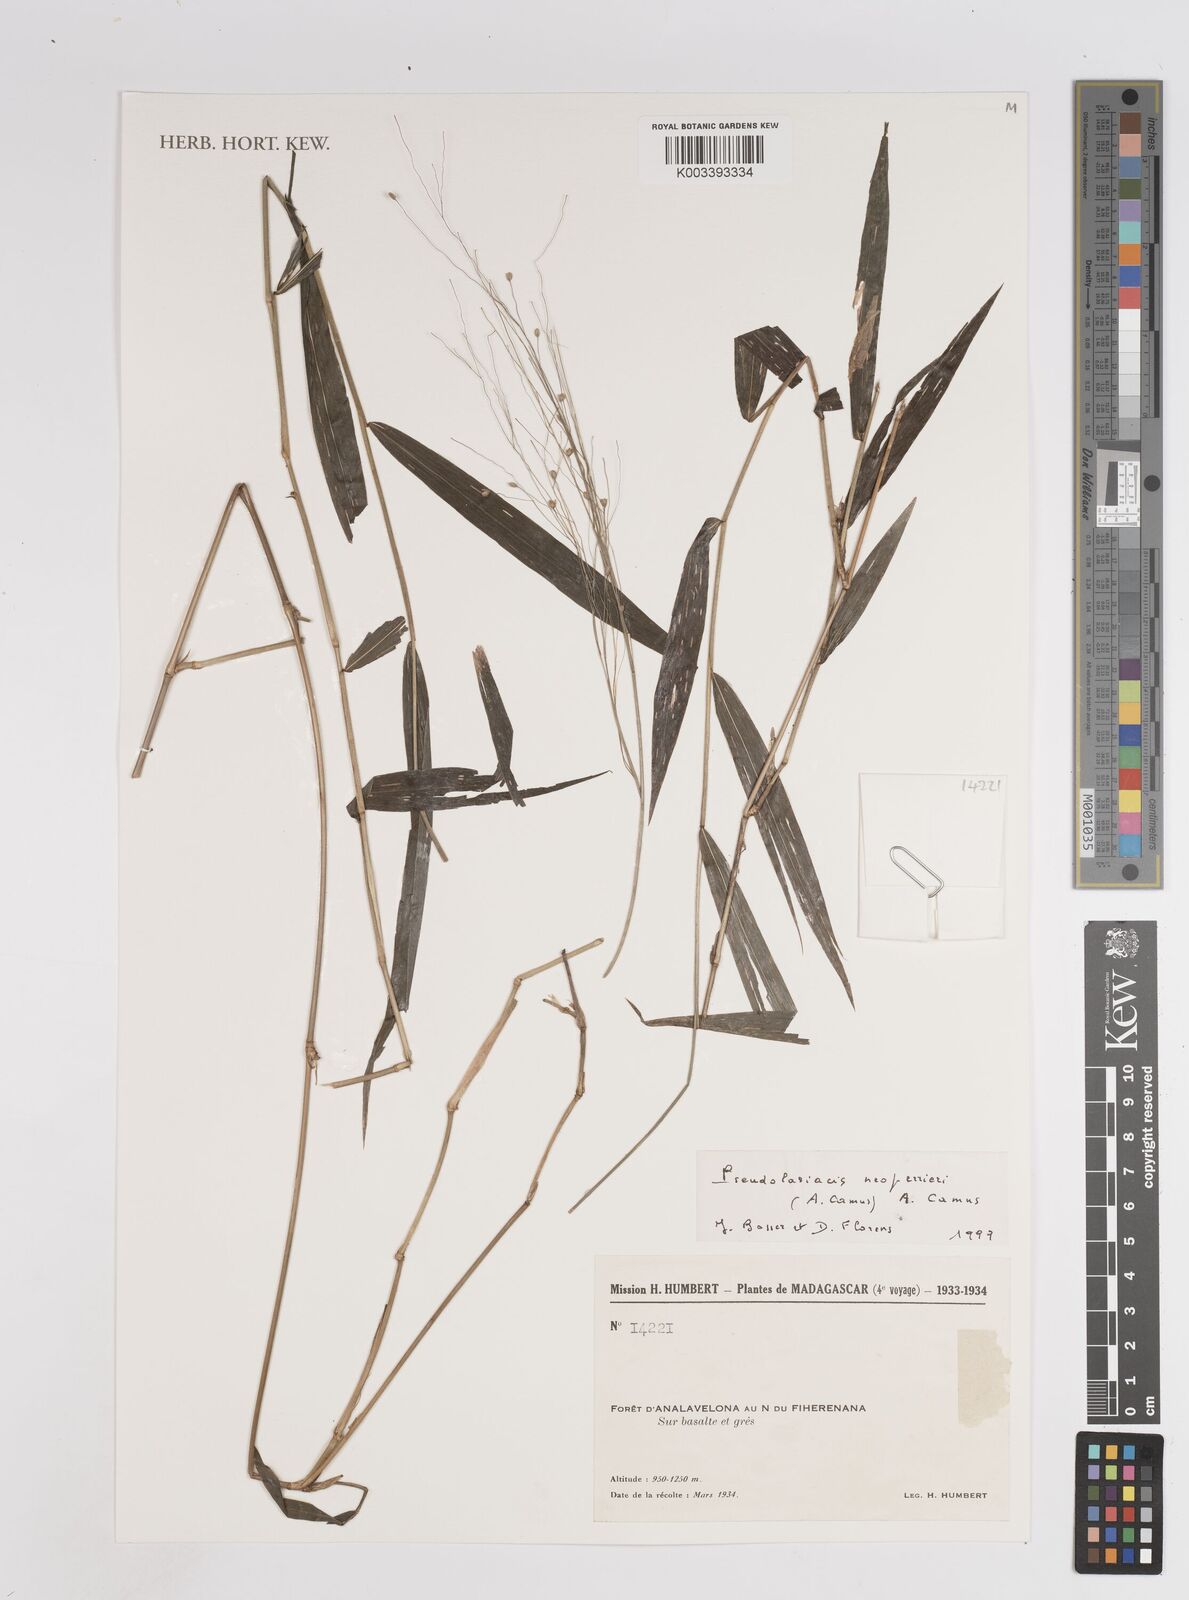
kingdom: Plantae
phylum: Tracheophyta
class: Liliopsida
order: Poales
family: Poaceae
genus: Pseudolasiacis
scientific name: Pseudolasiacis neoperrieri
